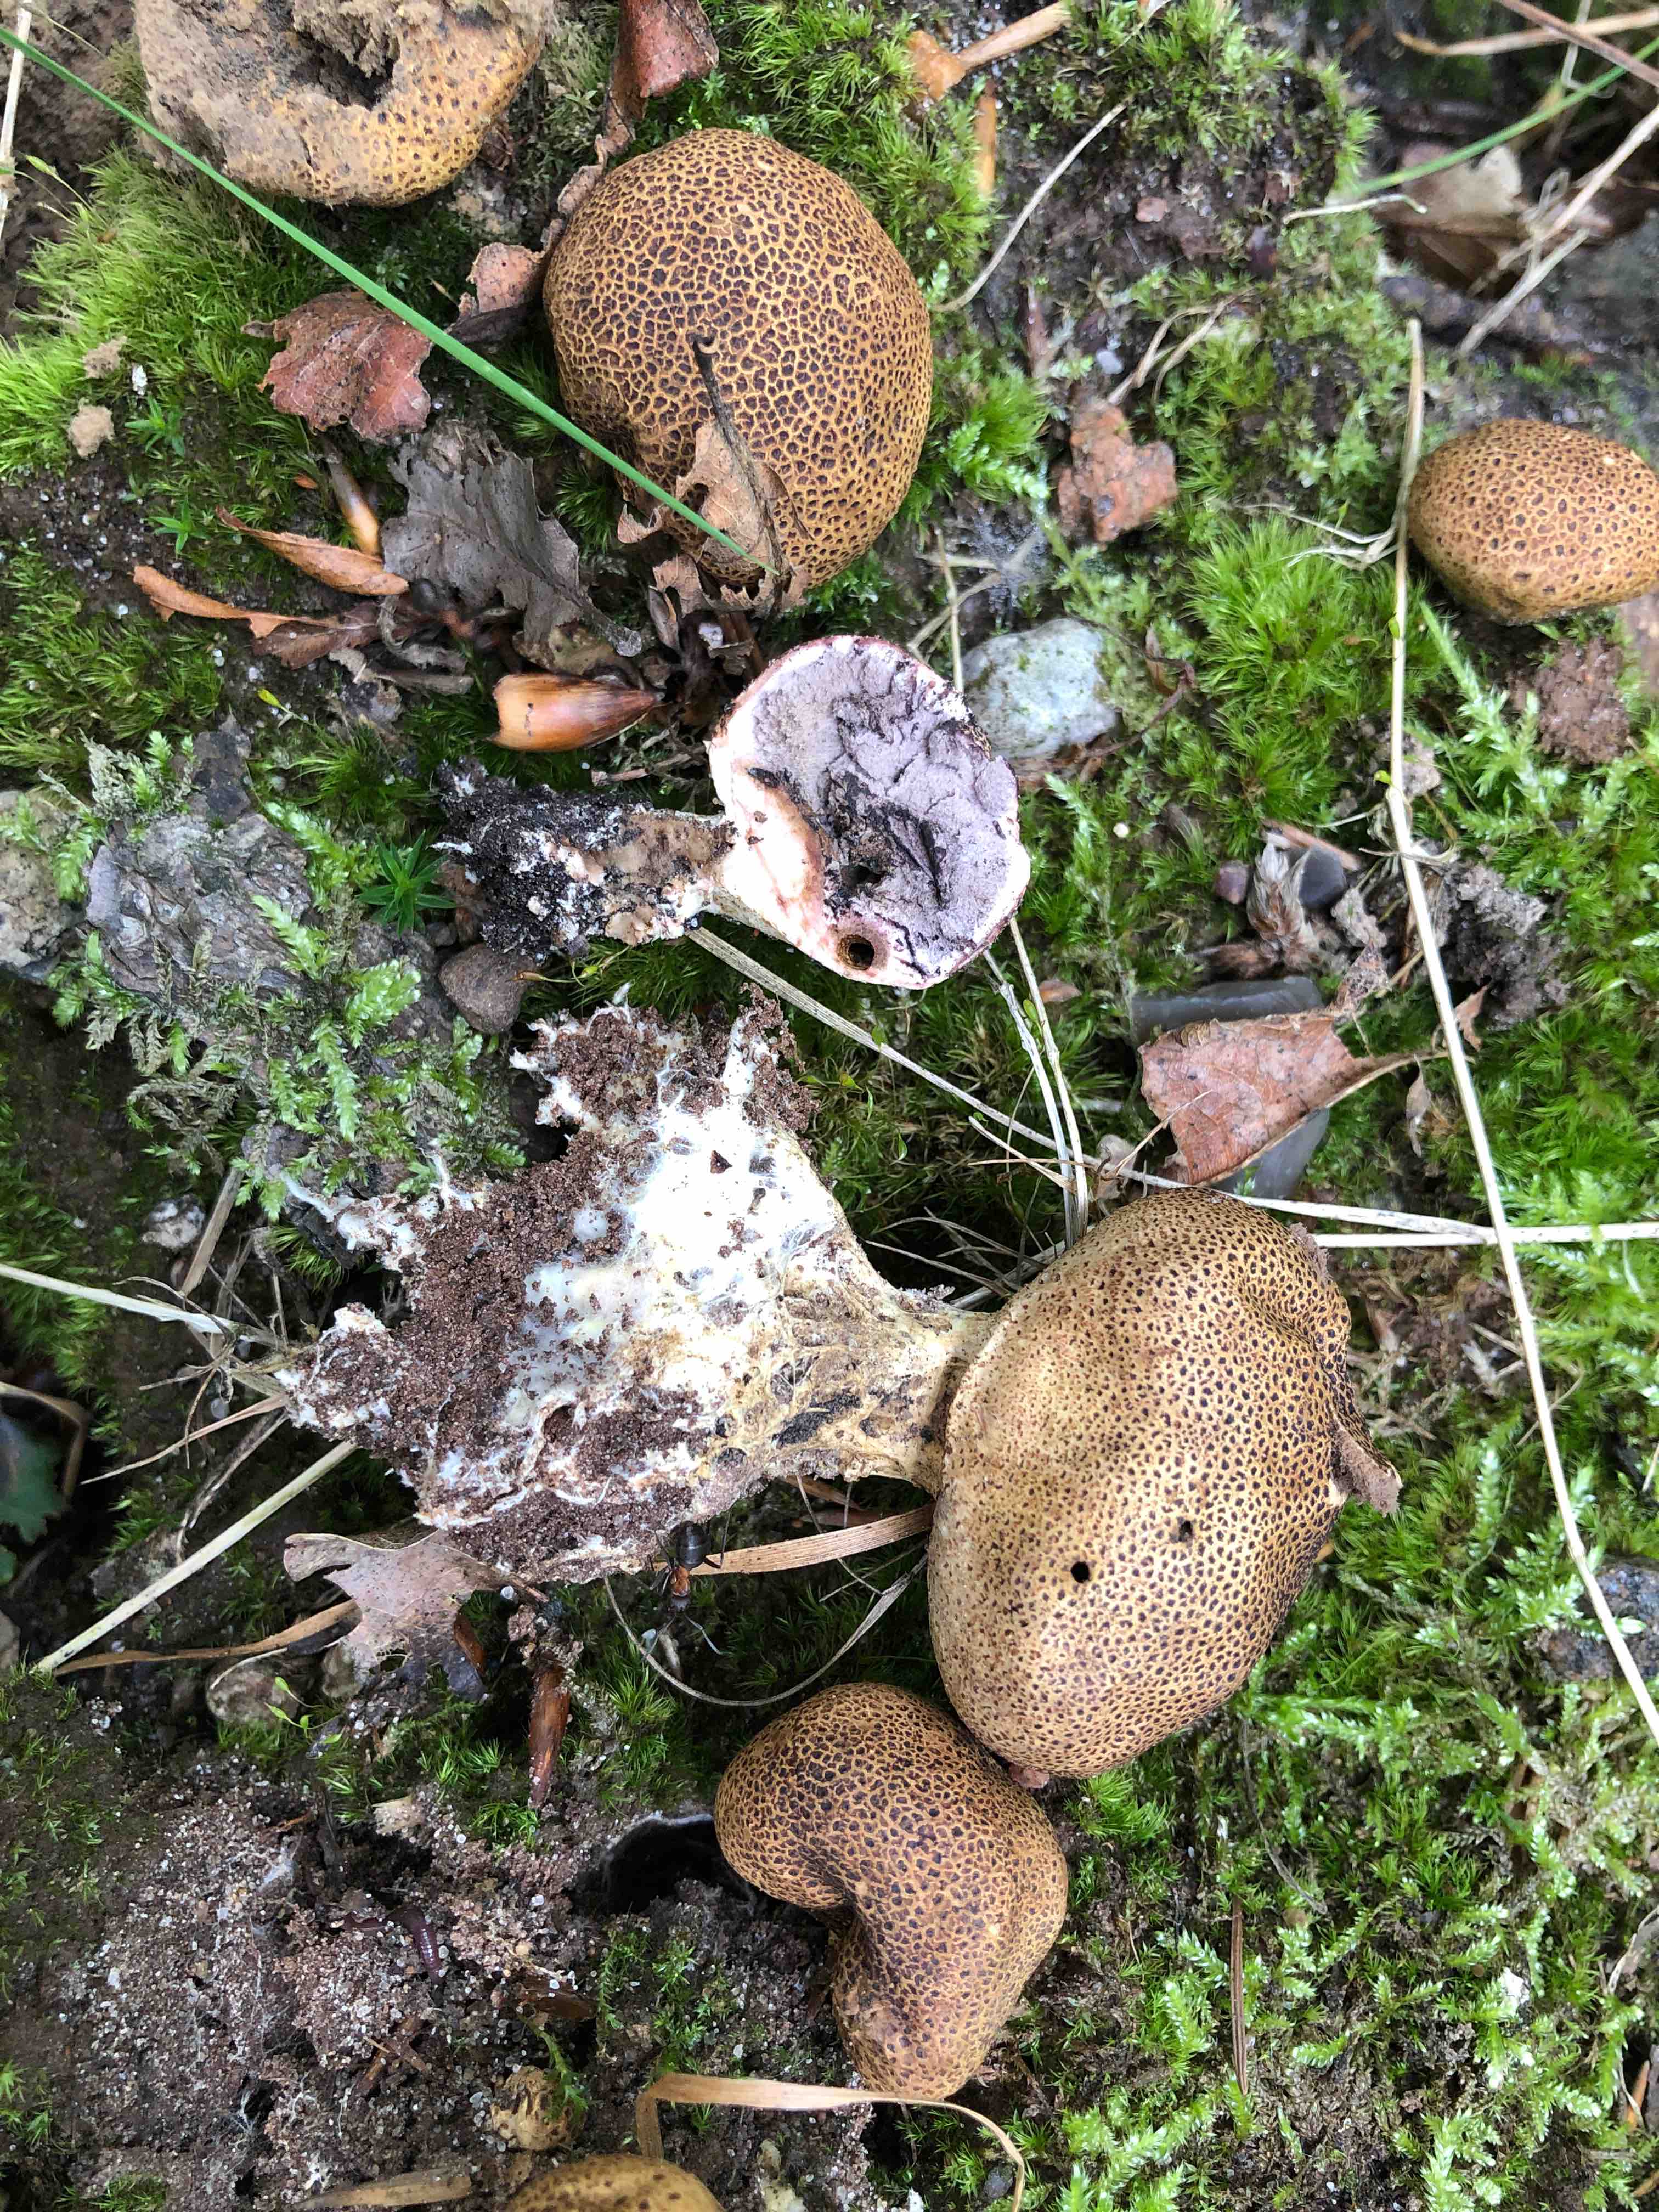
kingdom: Fungi
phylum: Basidiomycota
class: Agaricomycetes
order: Boletales
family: Sclerodermataceae
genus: Scleroderma
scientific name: Scleroderma verrucosum
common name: stilket bruskbold
